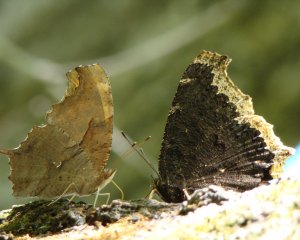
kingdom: Animalia
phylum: Arthropoda
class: Insecta
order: Lepidoptera
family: Nymphalidae
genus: Polygonia
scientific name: Polygonia interrogationis
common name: Question Mark
